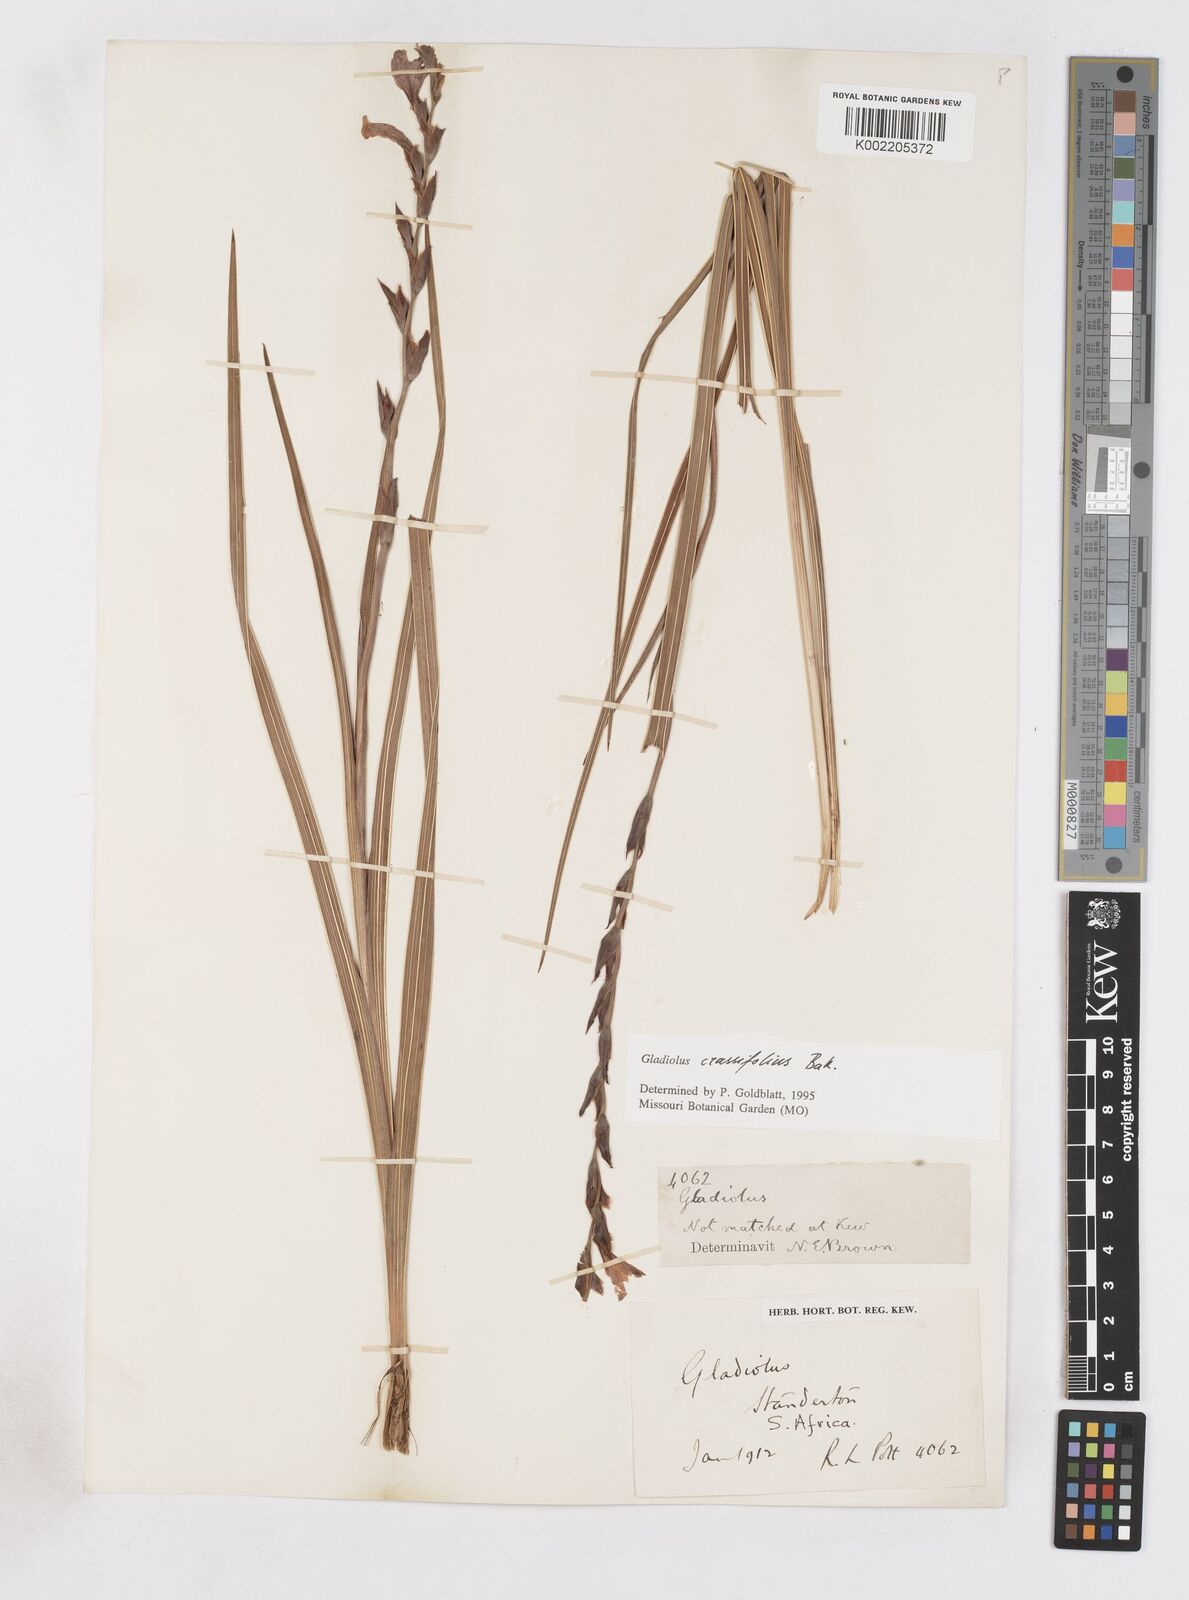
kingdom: Plantae
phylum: Tracheophyta
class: Liliopsida
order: Asparagales
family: Iridaceae
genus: Gladiolus
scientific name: Gladiolus crassifolius
